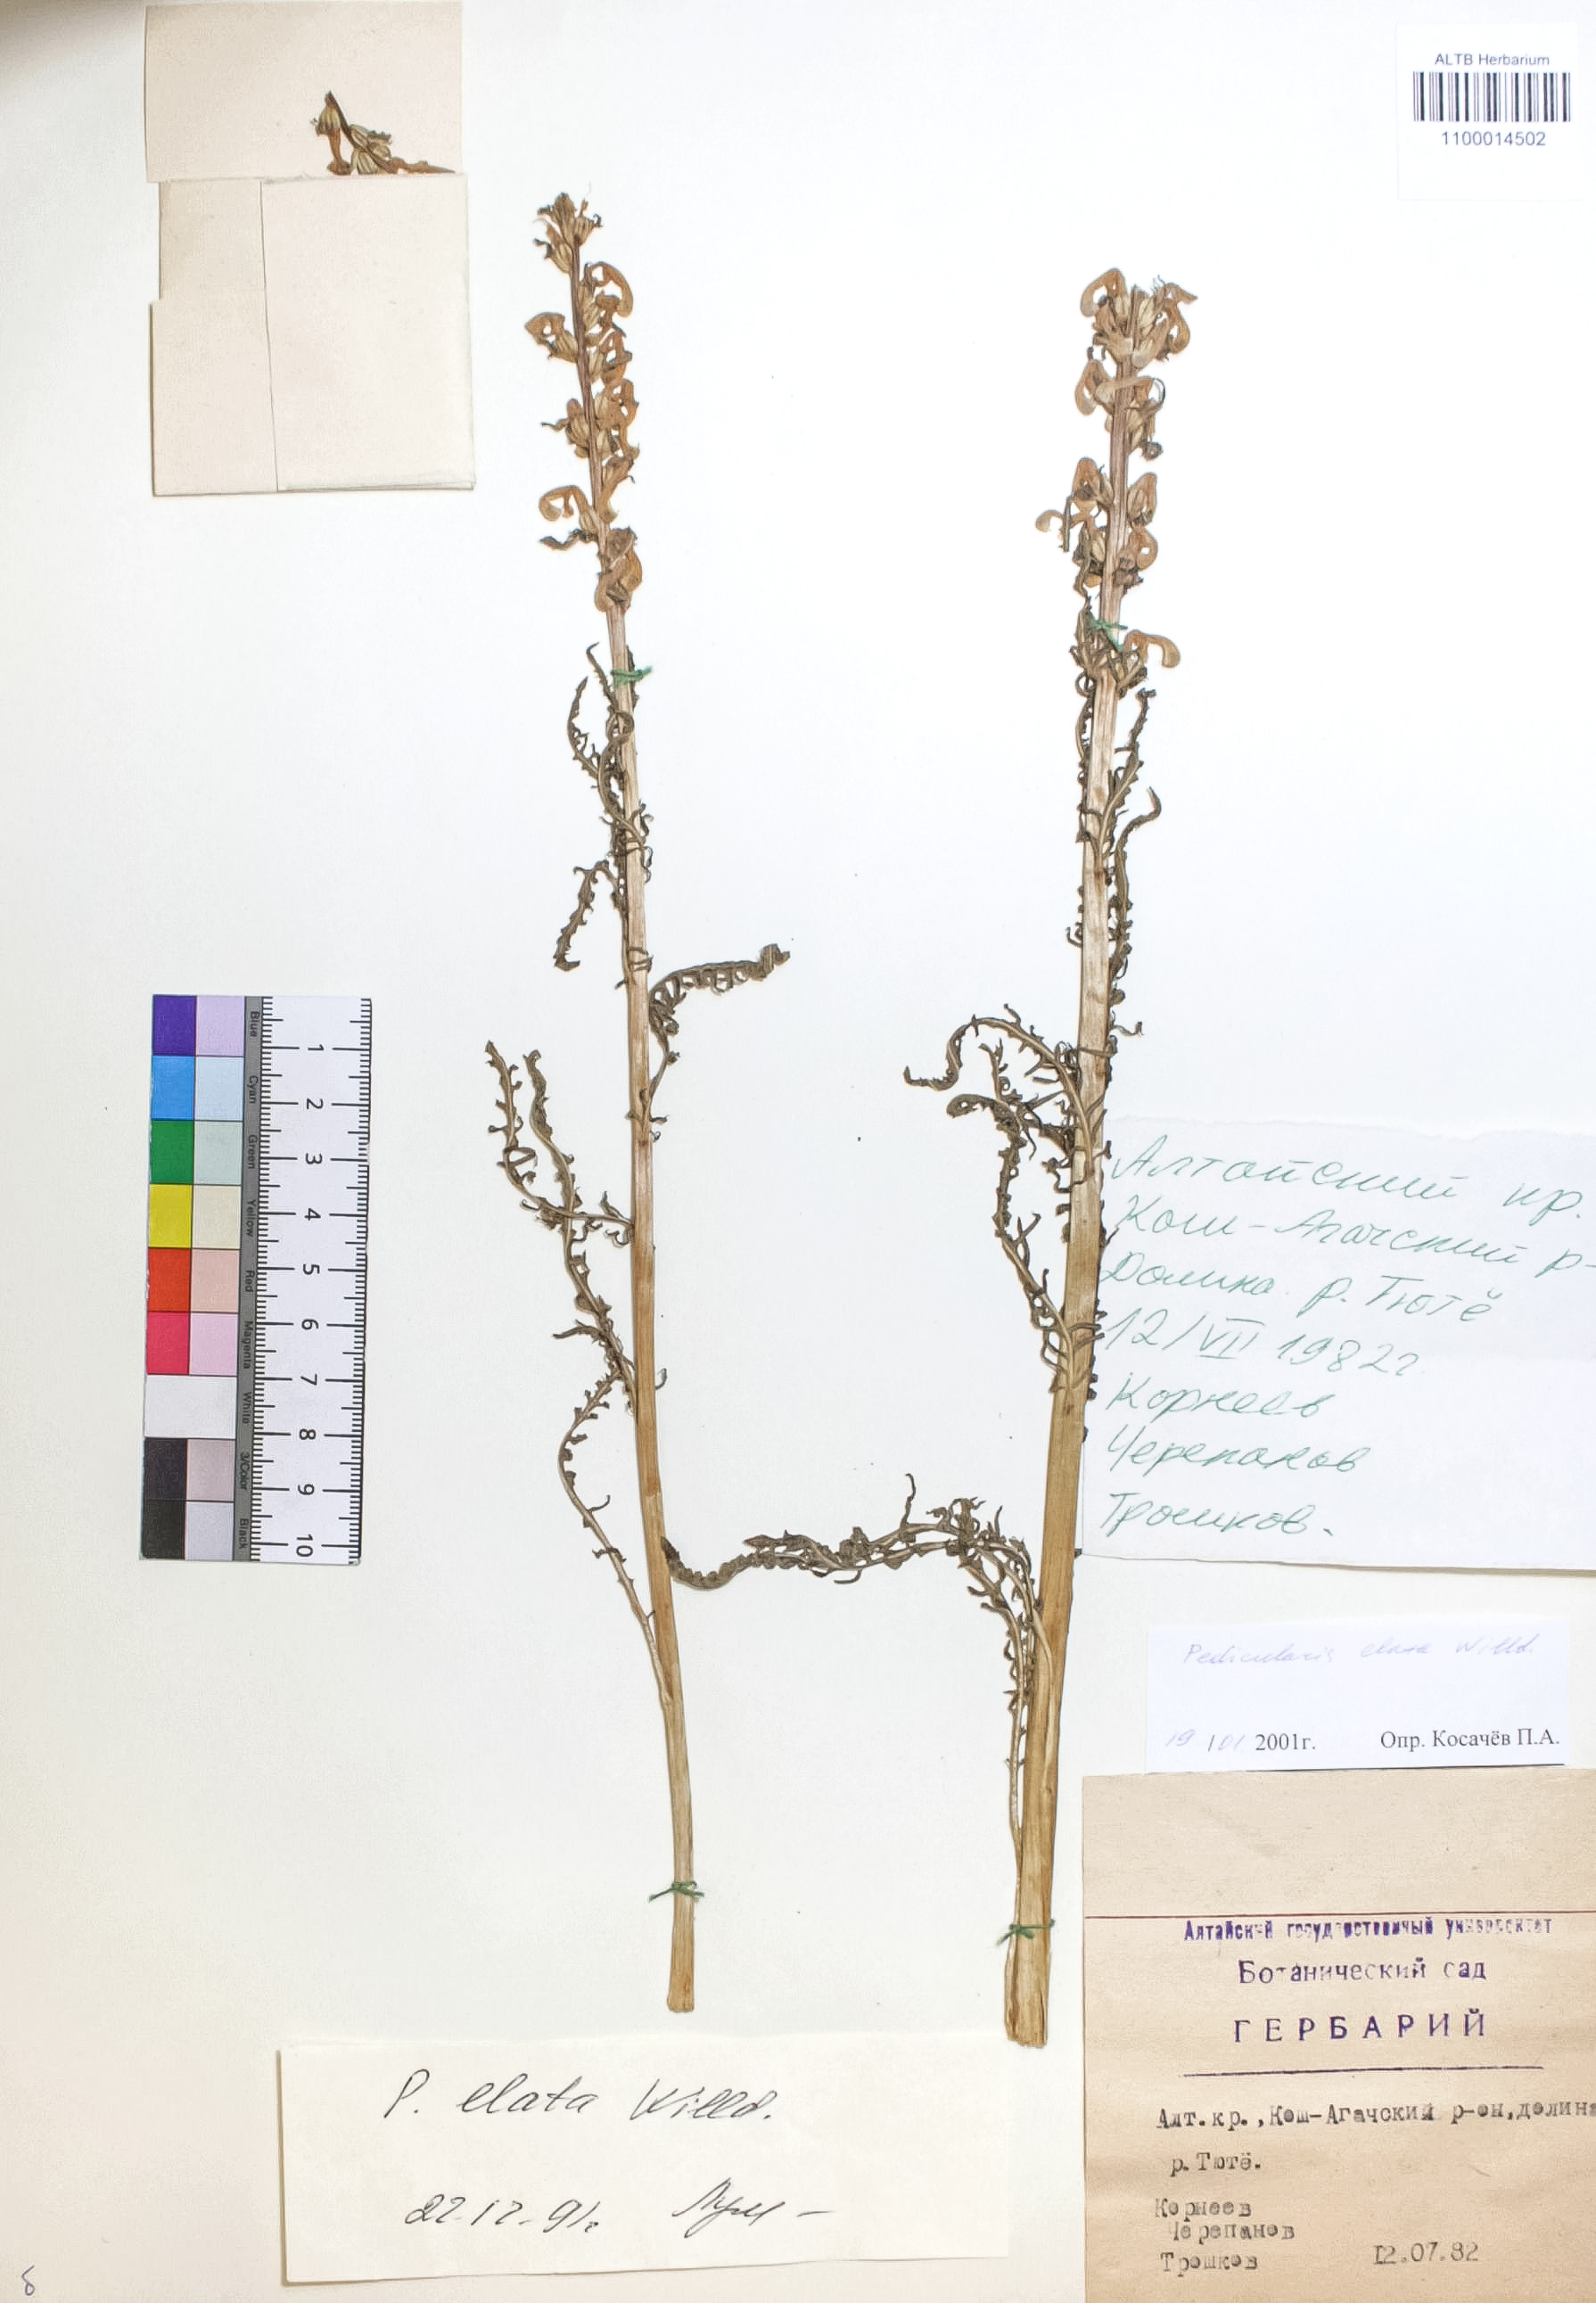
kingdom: Plantae
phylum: Tracheophyta
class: Magnoliopsida
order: Lamiales
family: Orobanchaceae
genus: Pedicularis
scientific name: Pedicularis elata
